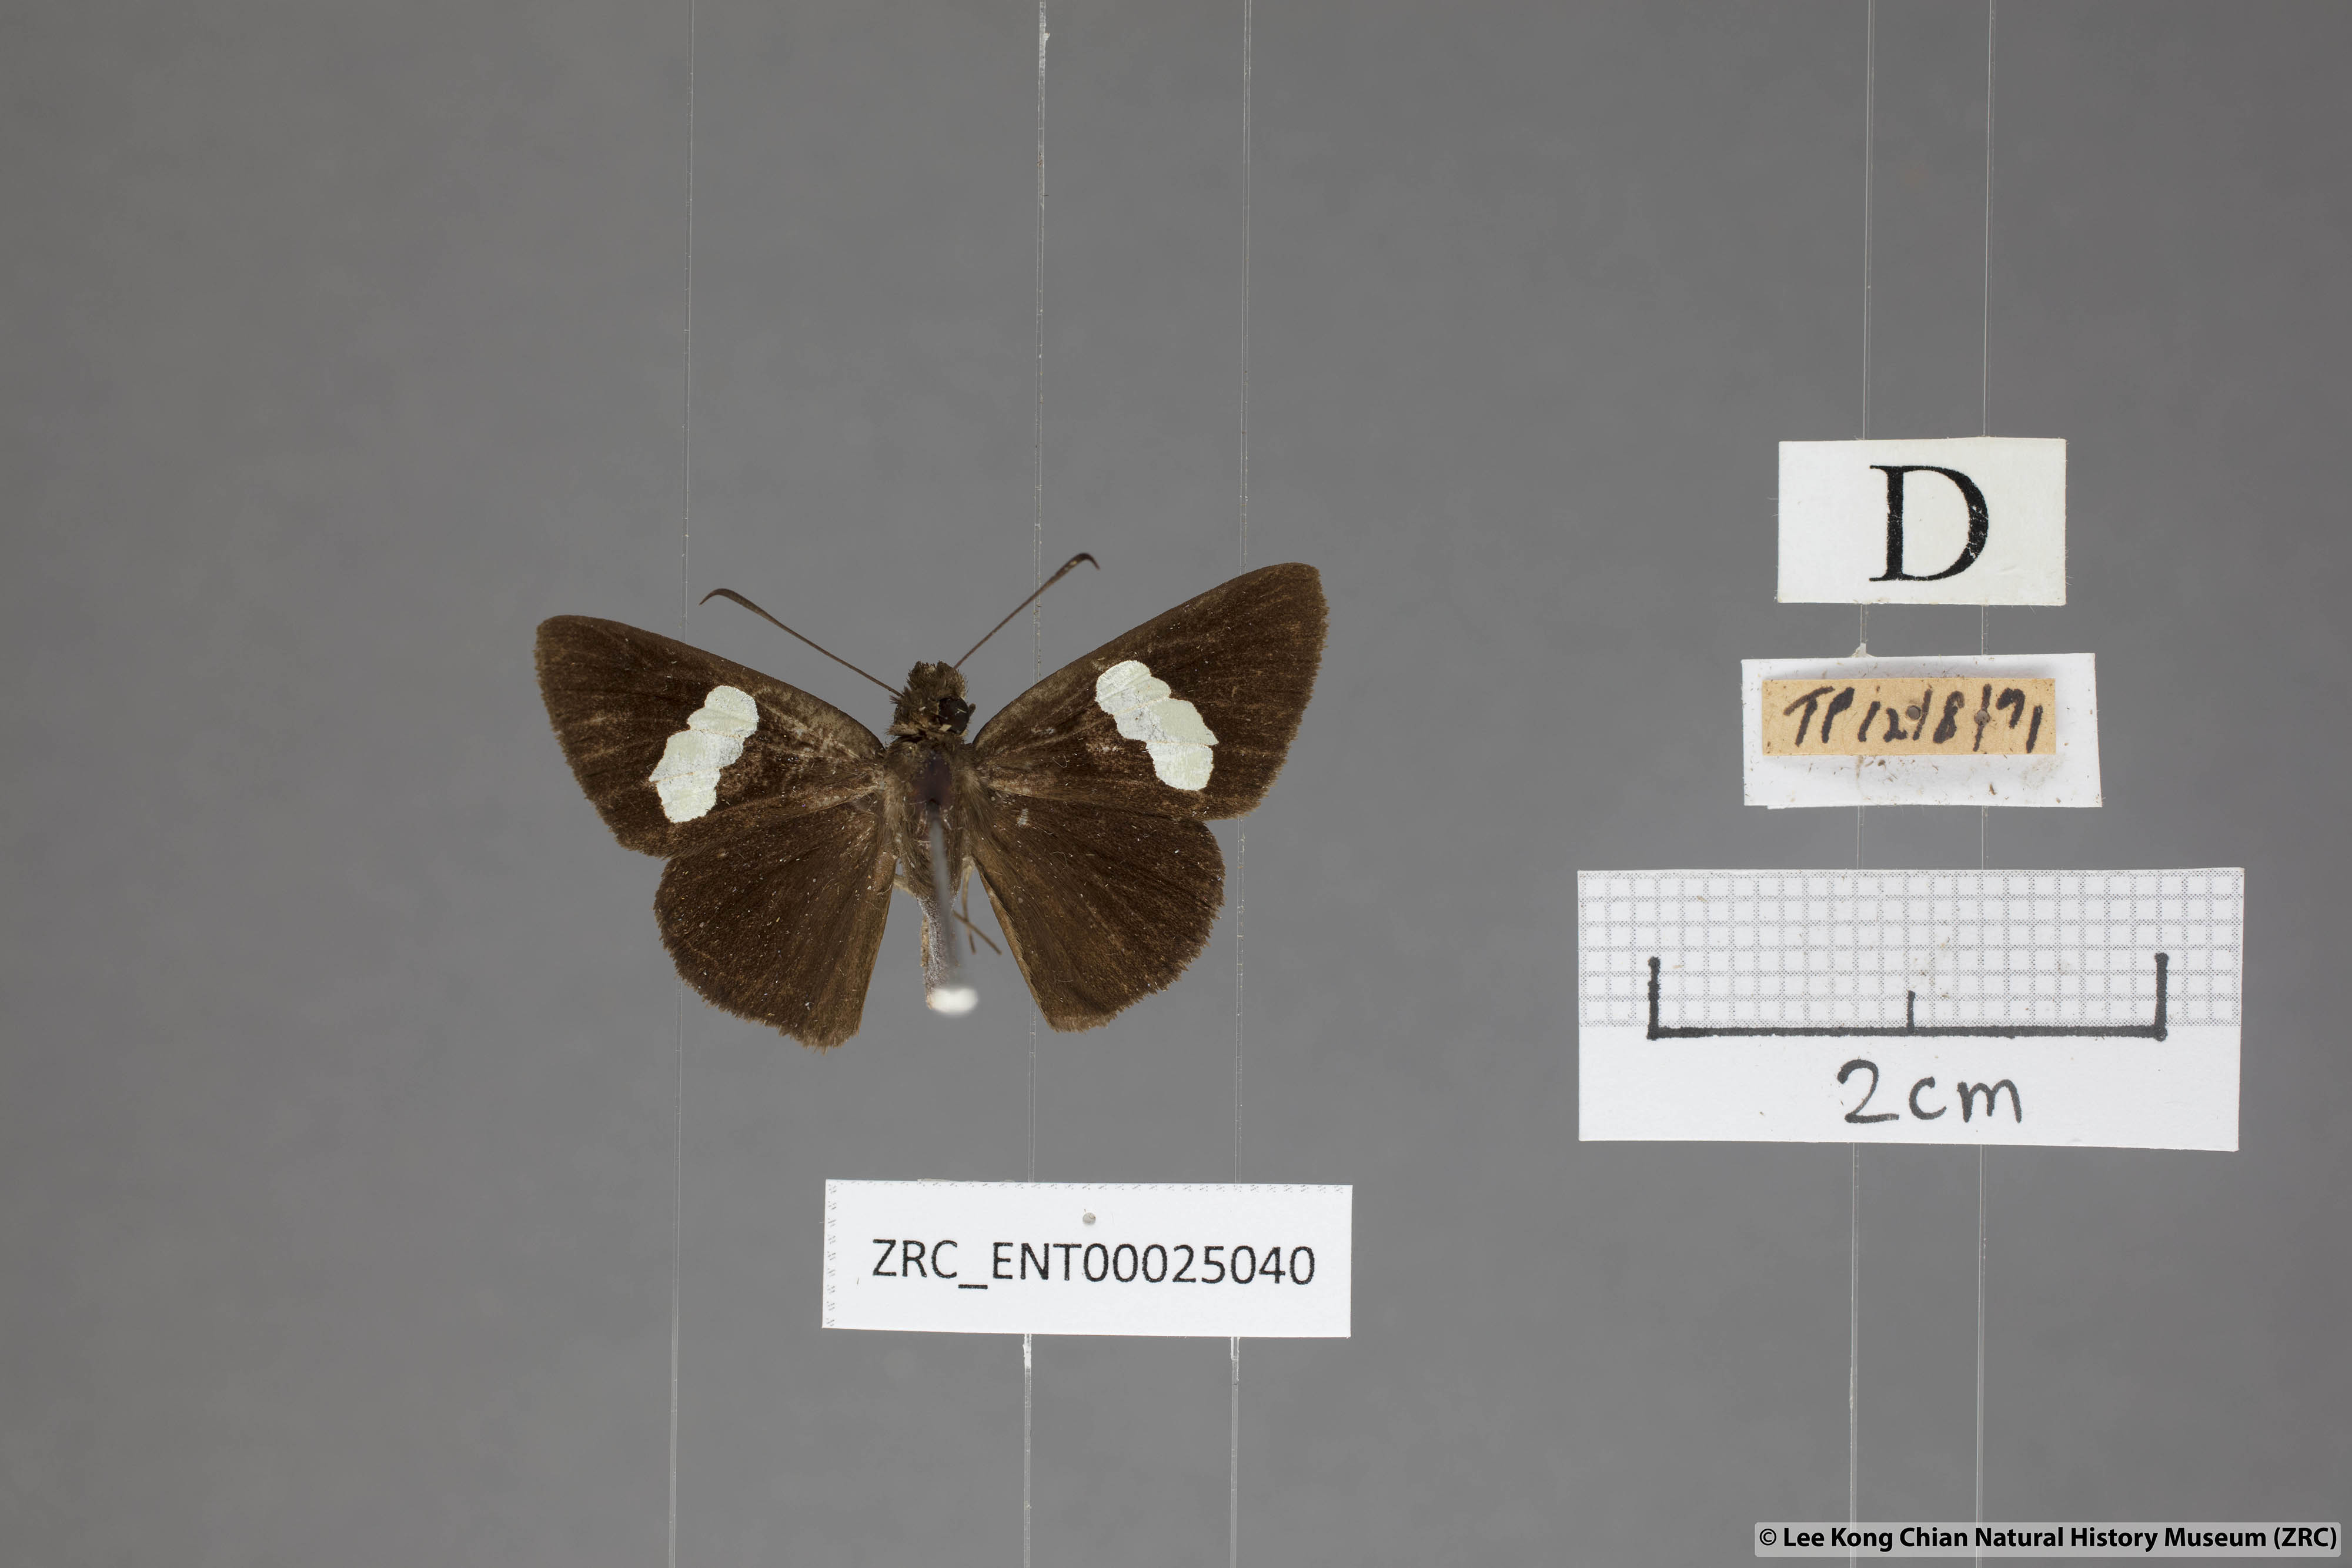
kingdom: Animalia
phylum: Arthropoda
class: Insecta
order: Lepidoptera
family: Hesperiidae
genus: Notocrypta
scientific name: Notocrypta paralysos
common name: Common banded demon
